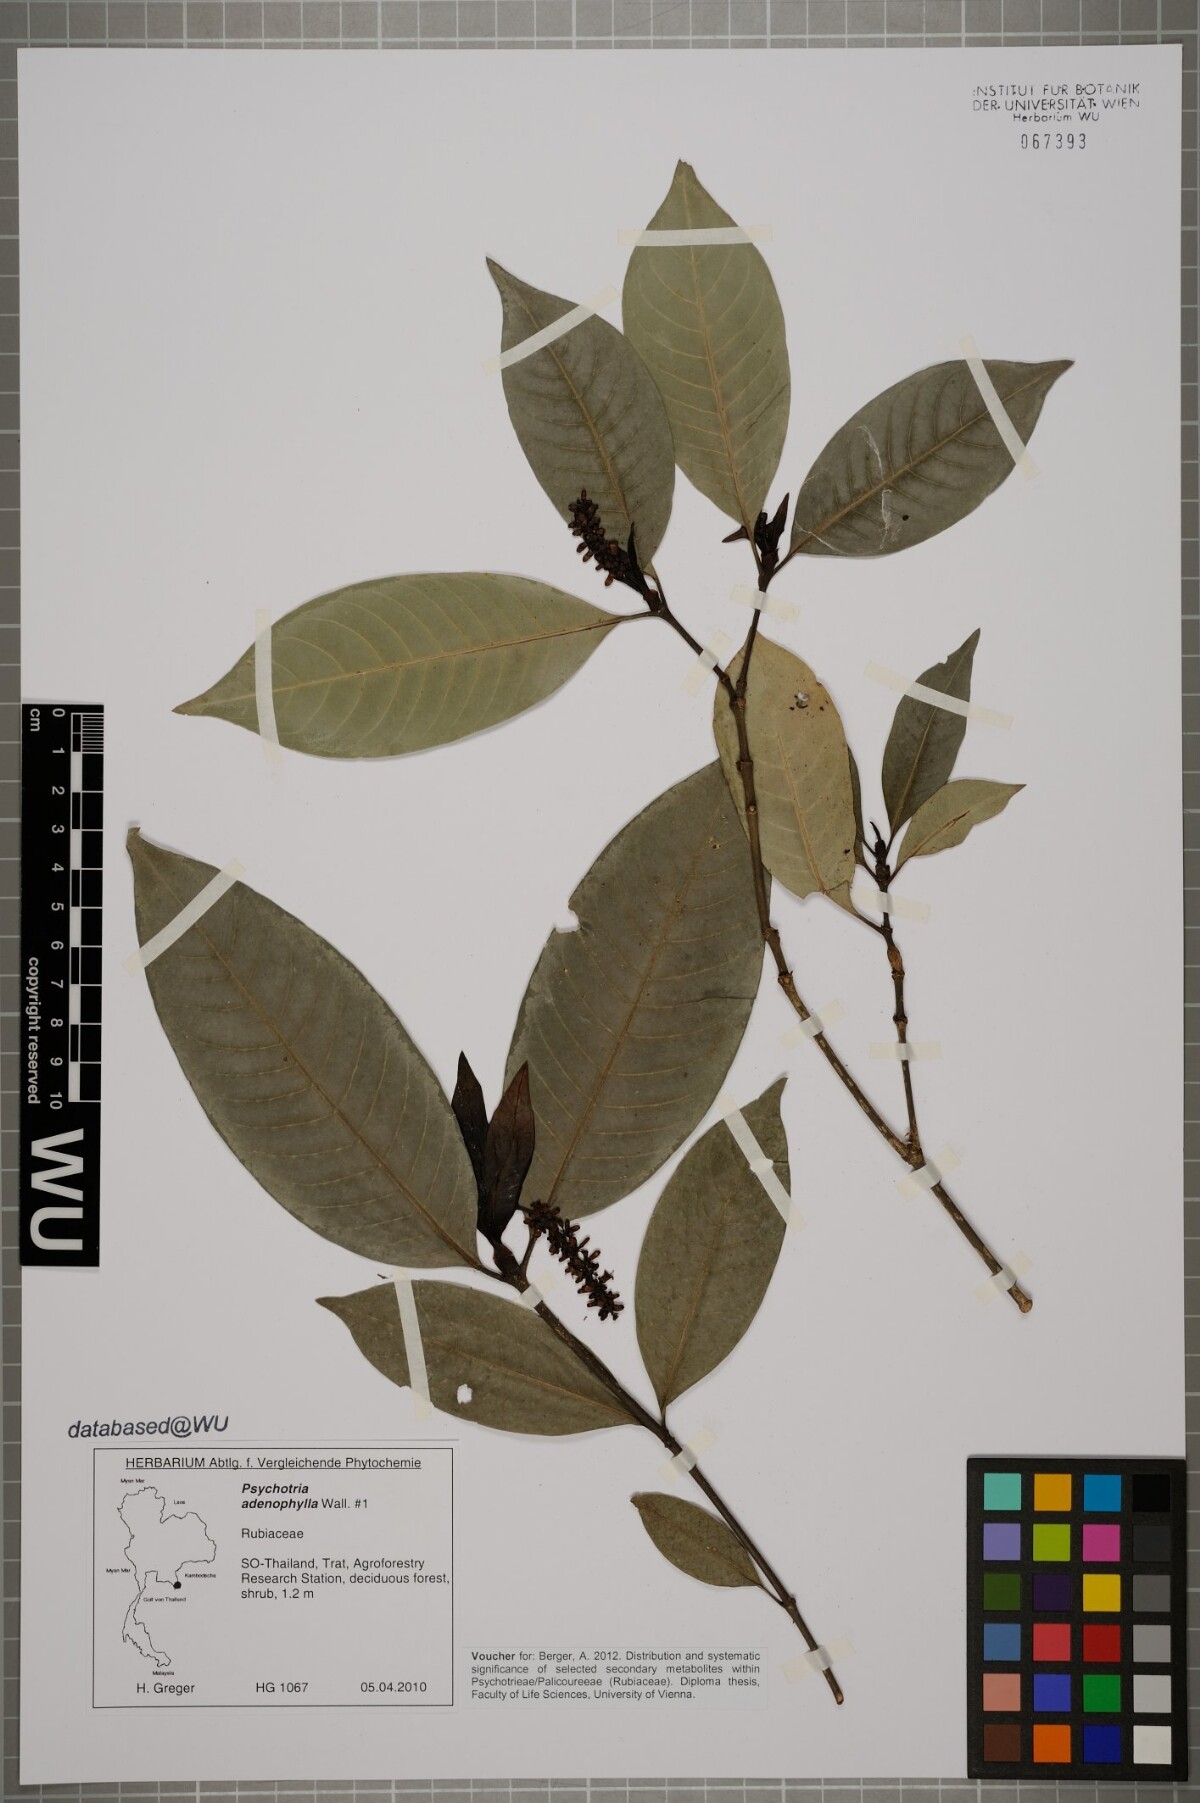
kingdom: Plantae
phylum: Tracheophyta
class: Magnoliopsida
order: Gentianales
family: Rubiaceae
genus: Psychotria
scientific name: Psychotria adenophylla
